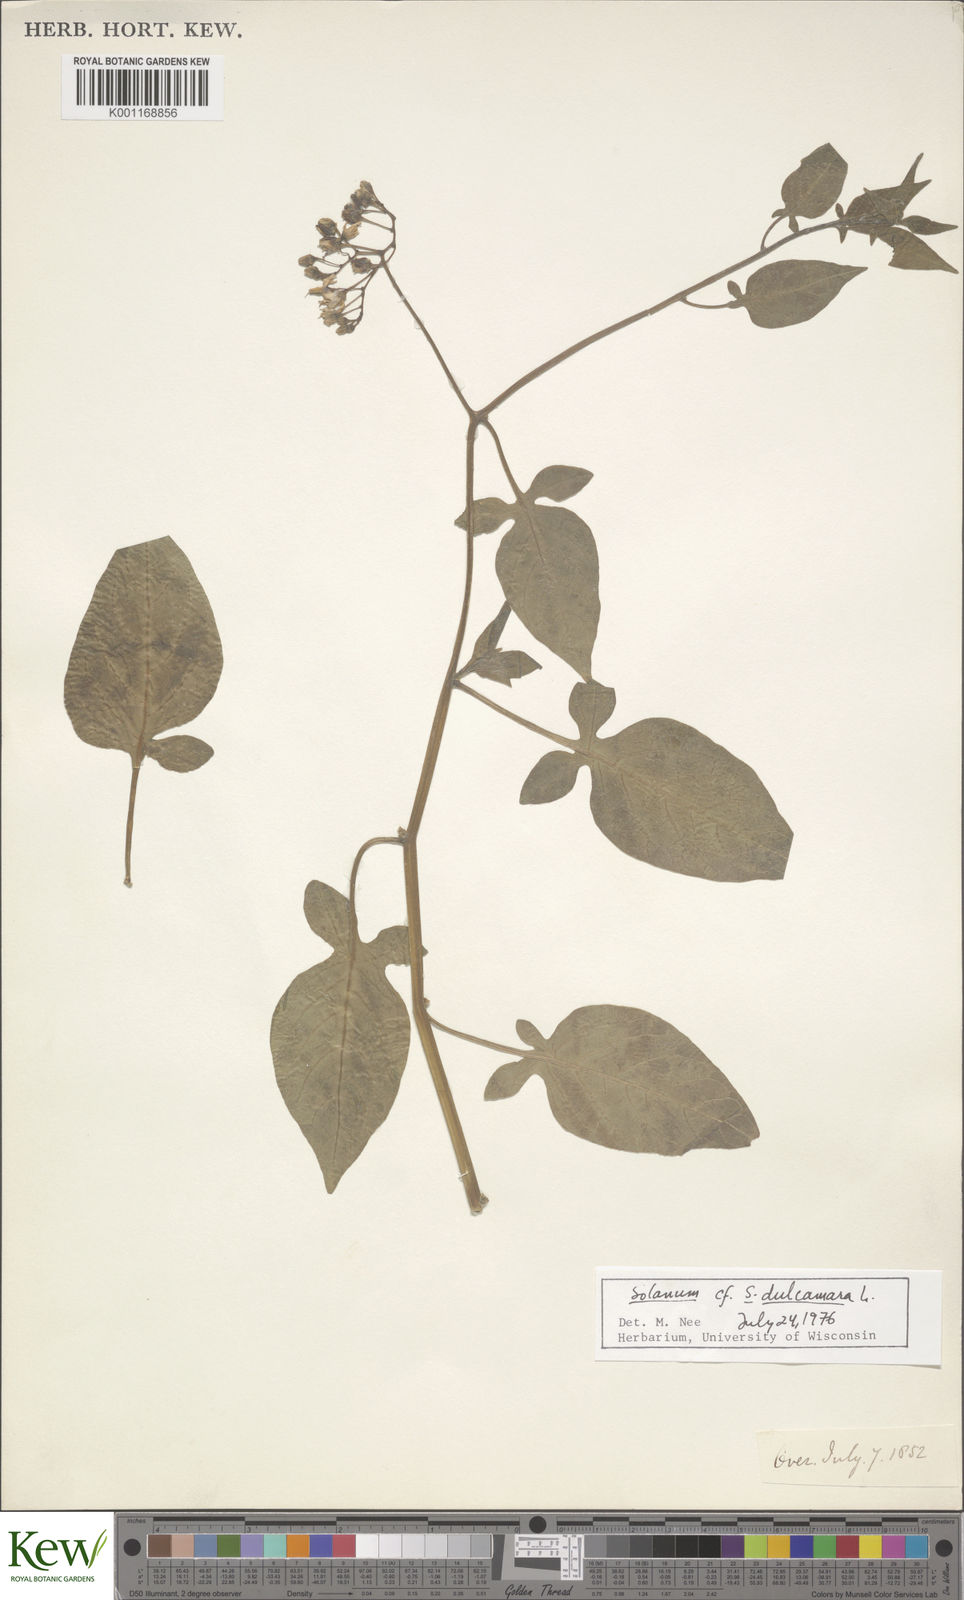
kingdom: Plantae
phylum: Tracheophyta
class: Magnoliopsida
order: Solanales
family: Solanaceae
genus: Solanum
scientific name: Solanum dulcamara
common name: Climbing nightshade
